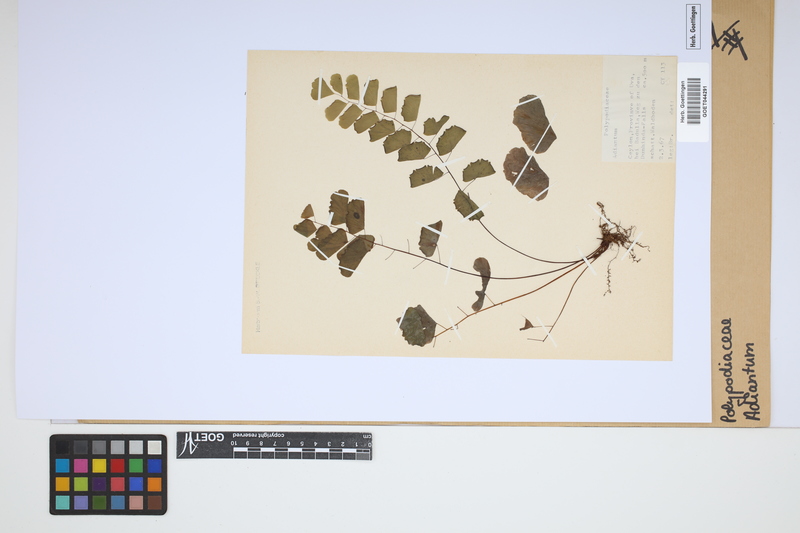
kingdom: Plantae
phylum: Tracheophyta
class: Polypodiopsida
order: Polypodiales
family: Pteridaceae
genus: Adiantum
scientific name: Adiantum
